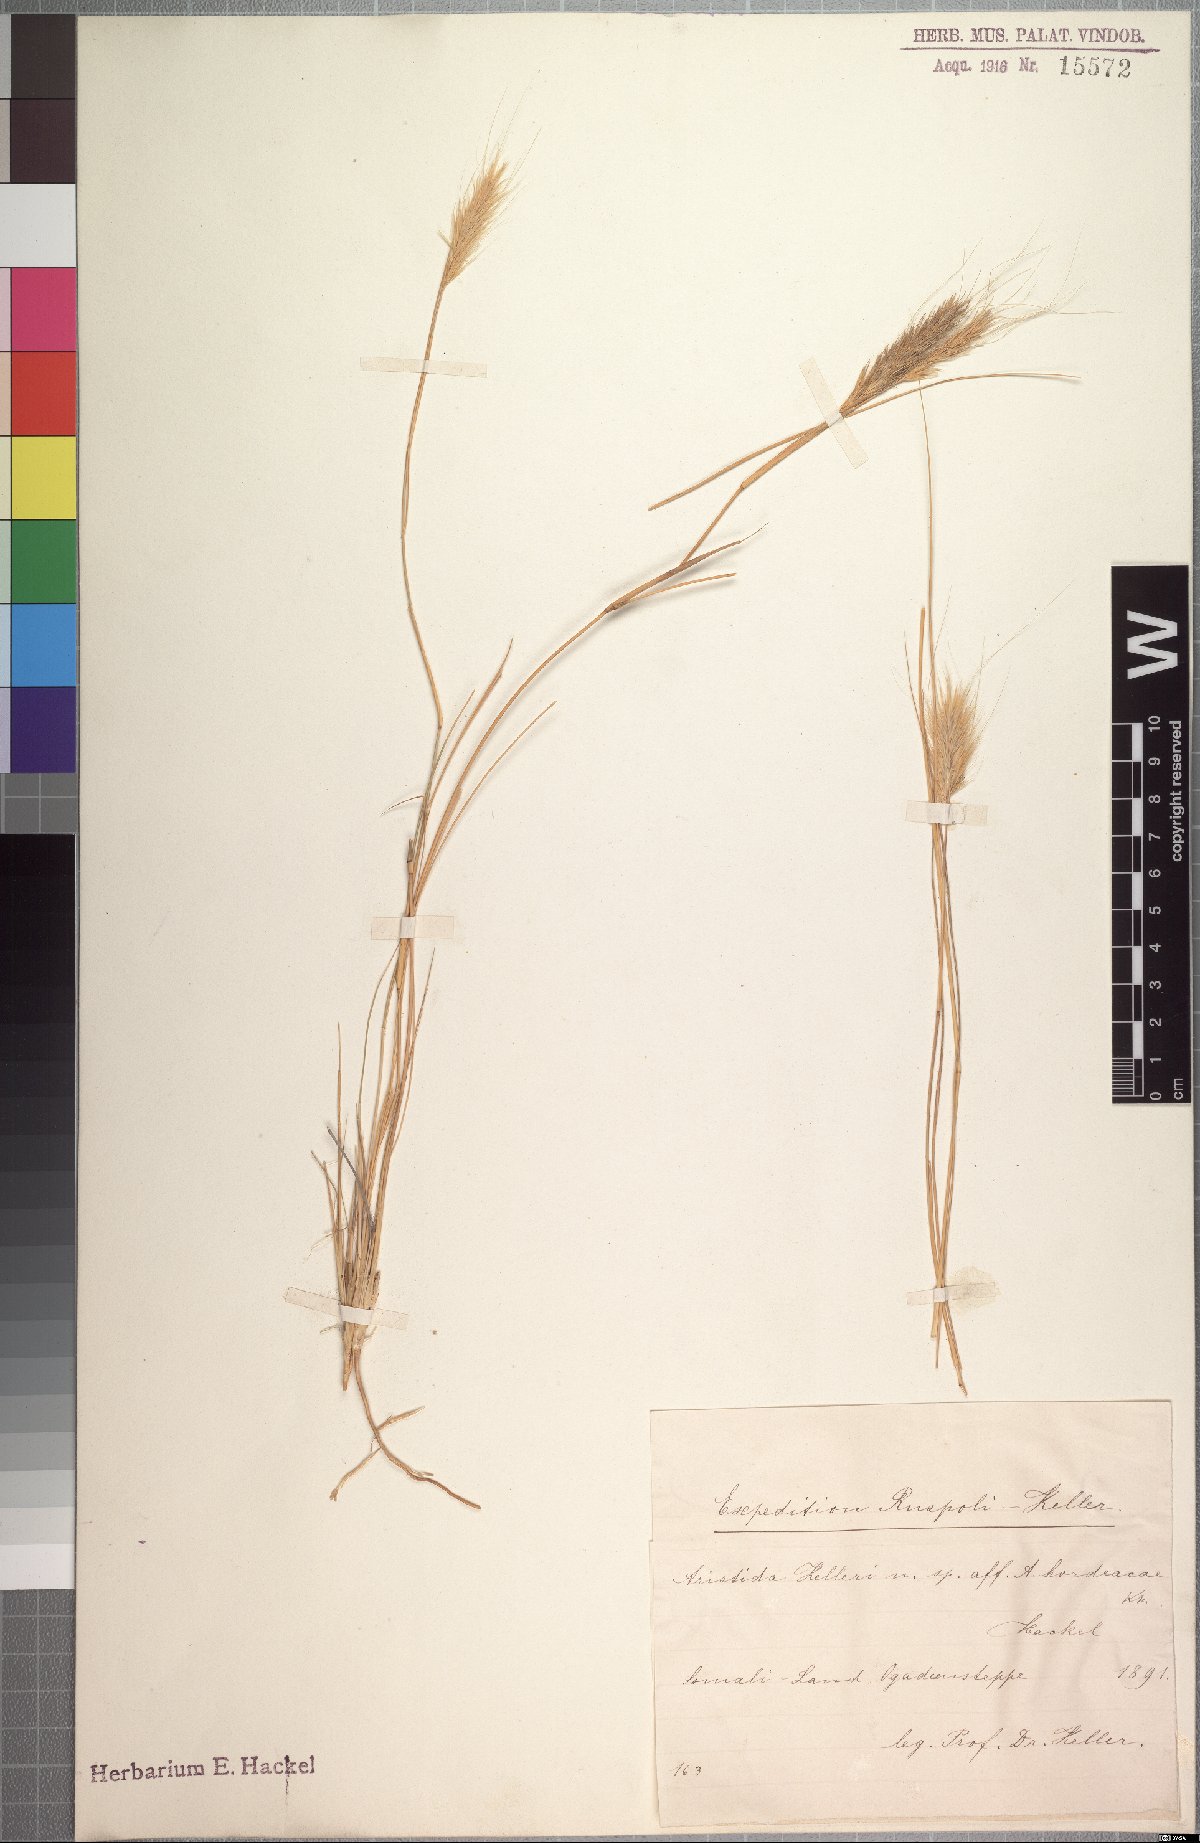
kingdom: Plantae
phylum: Tracheophyta
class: Liliopsida
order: Poales
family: Poaceae
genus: Aristida
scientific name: Aristida kelleri
